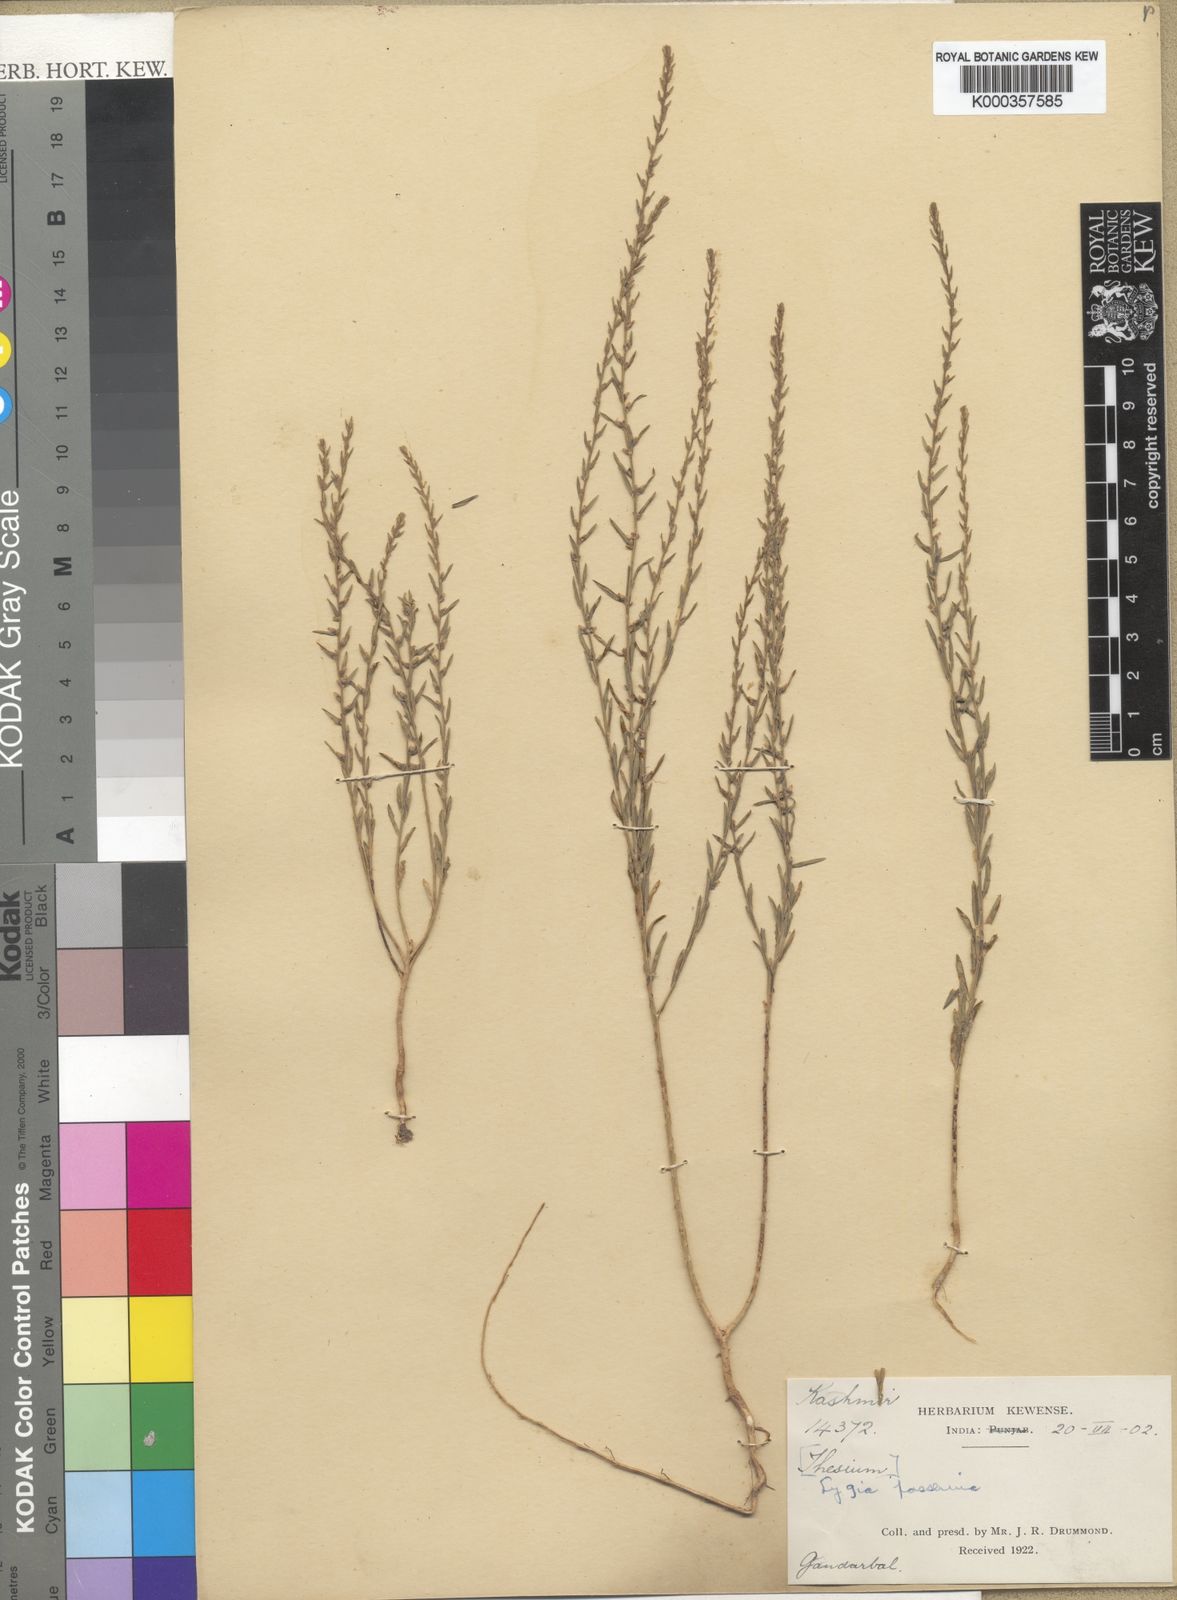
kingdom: Plantae
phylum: Tracheophyta
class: Magnoliopsida
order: Malvales
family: Thymelaeaceae
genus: Thymelaea
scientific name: Thymelaea
